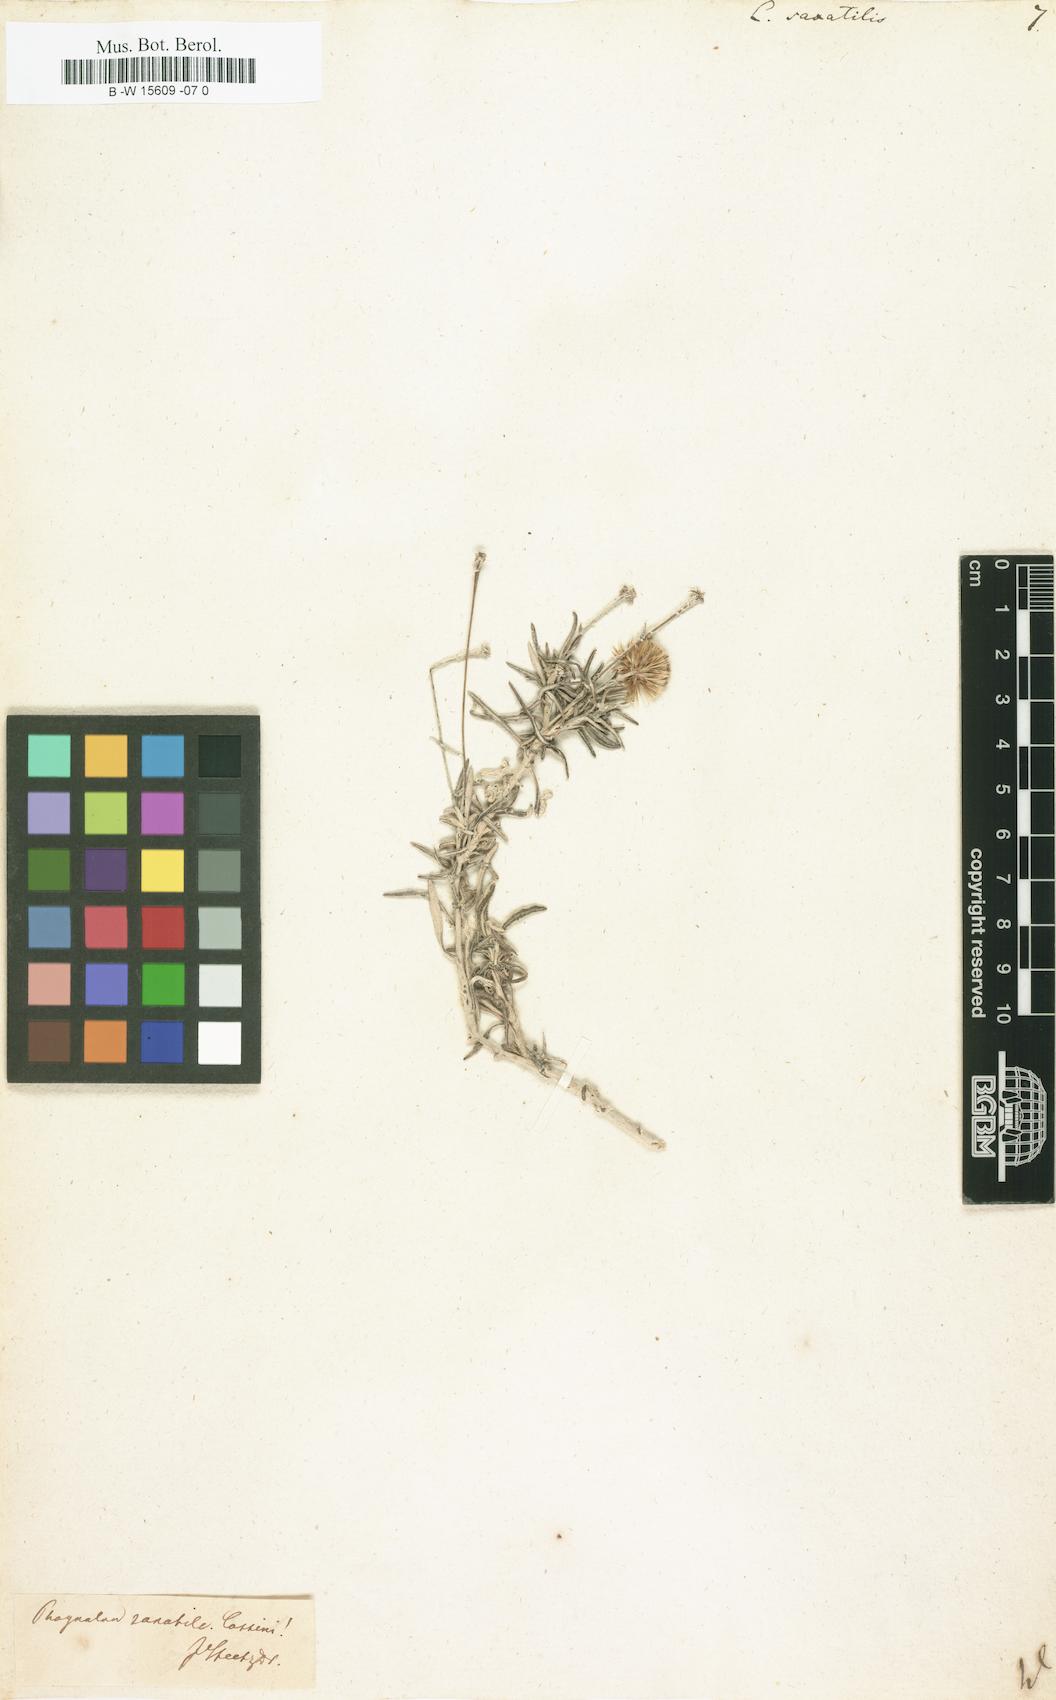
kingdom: Plantae
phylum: Tracheophyta
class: Magnoliopsida
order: Asterales
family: Asteraceae
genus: Phagnalon
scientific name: Phagnalon saxatile
